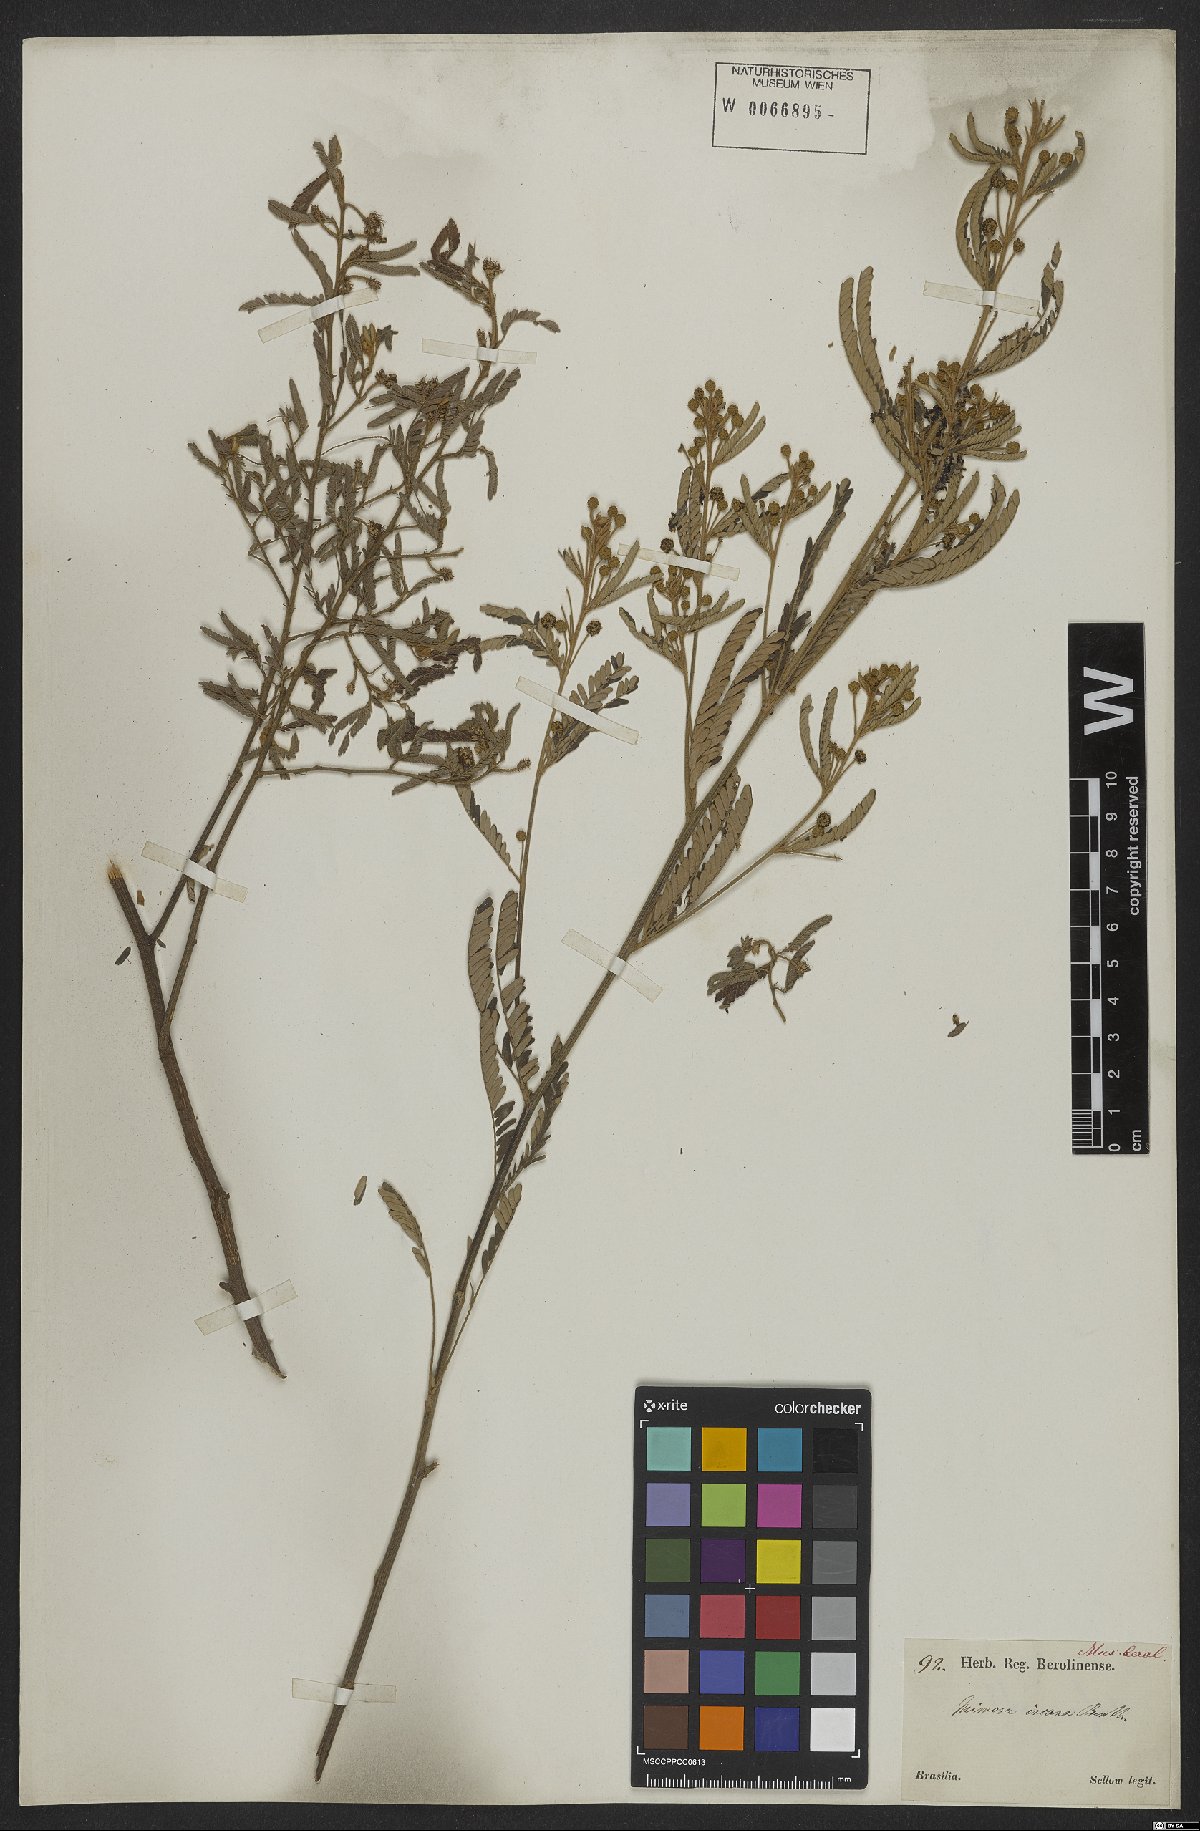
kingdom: Plantae
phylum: Tracheophyta
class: Magnoliopsida
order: Fabales
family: Fabaceae
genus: Mimosa
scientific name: Mimosa incana
